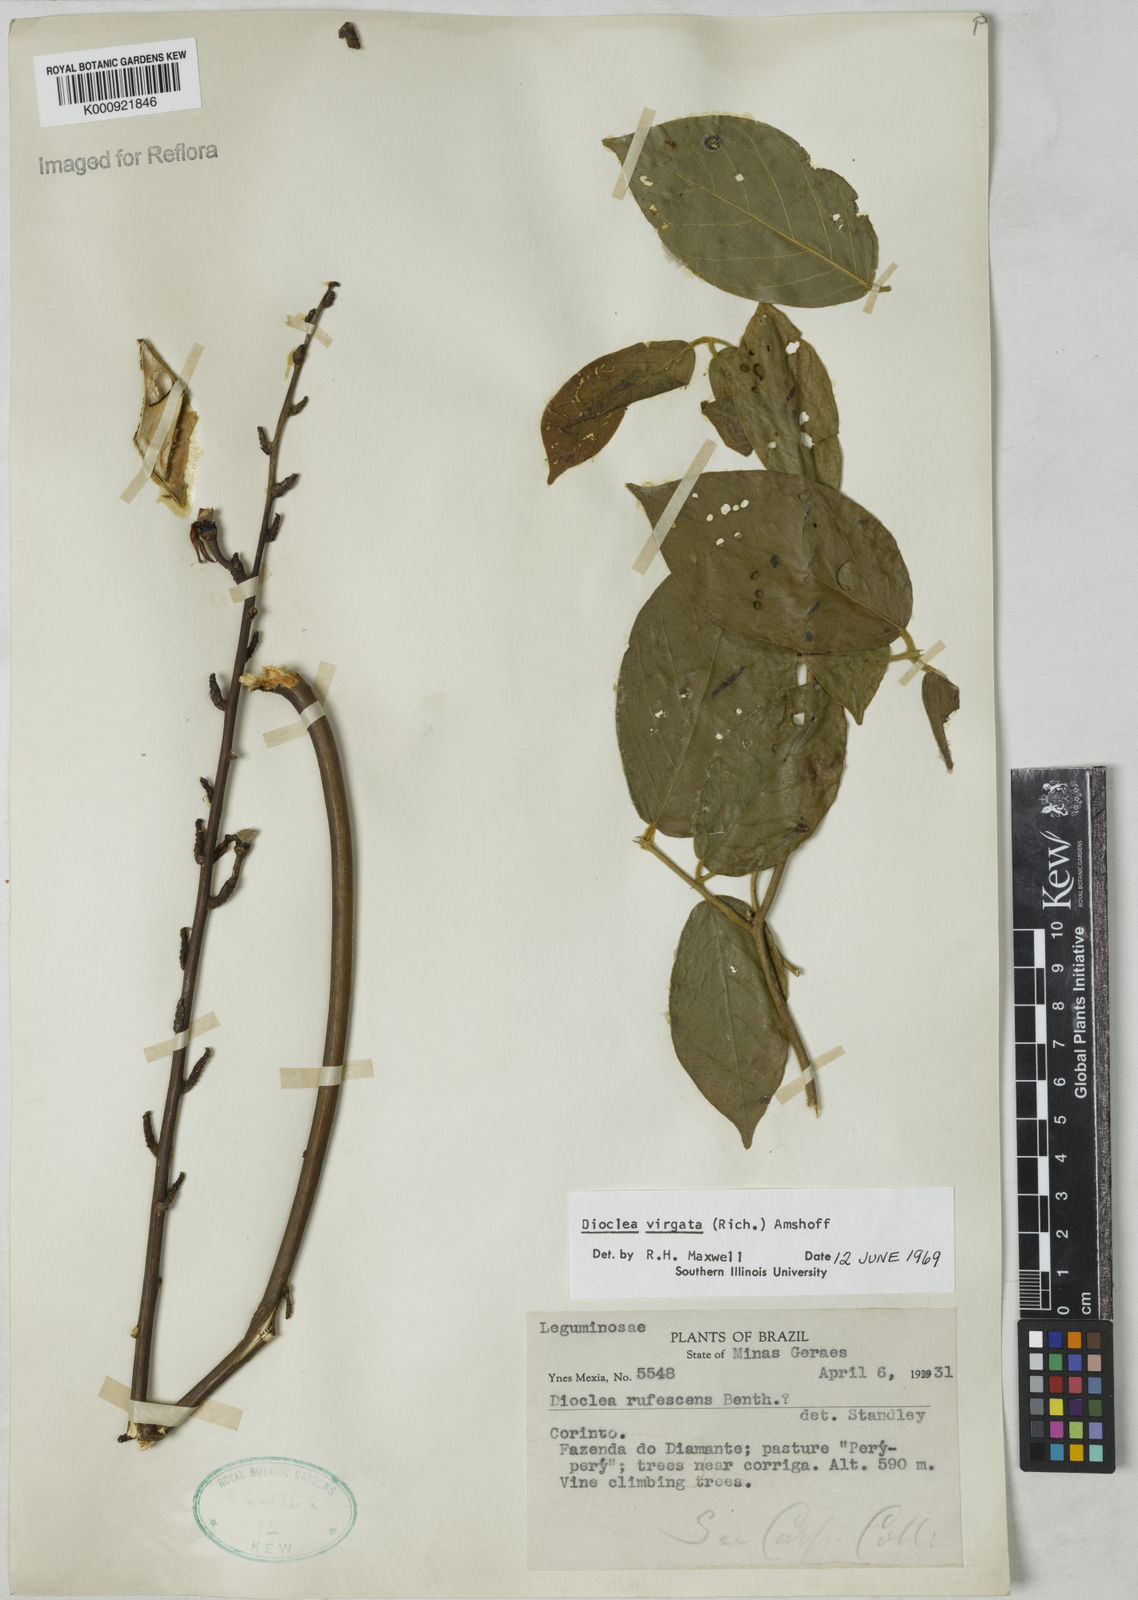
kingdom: Plantae
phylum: Tracheophyta
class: Magnoliopsida
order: Fabales
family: Fabaceae
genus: Dioclea
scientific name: Dioclea virgata
